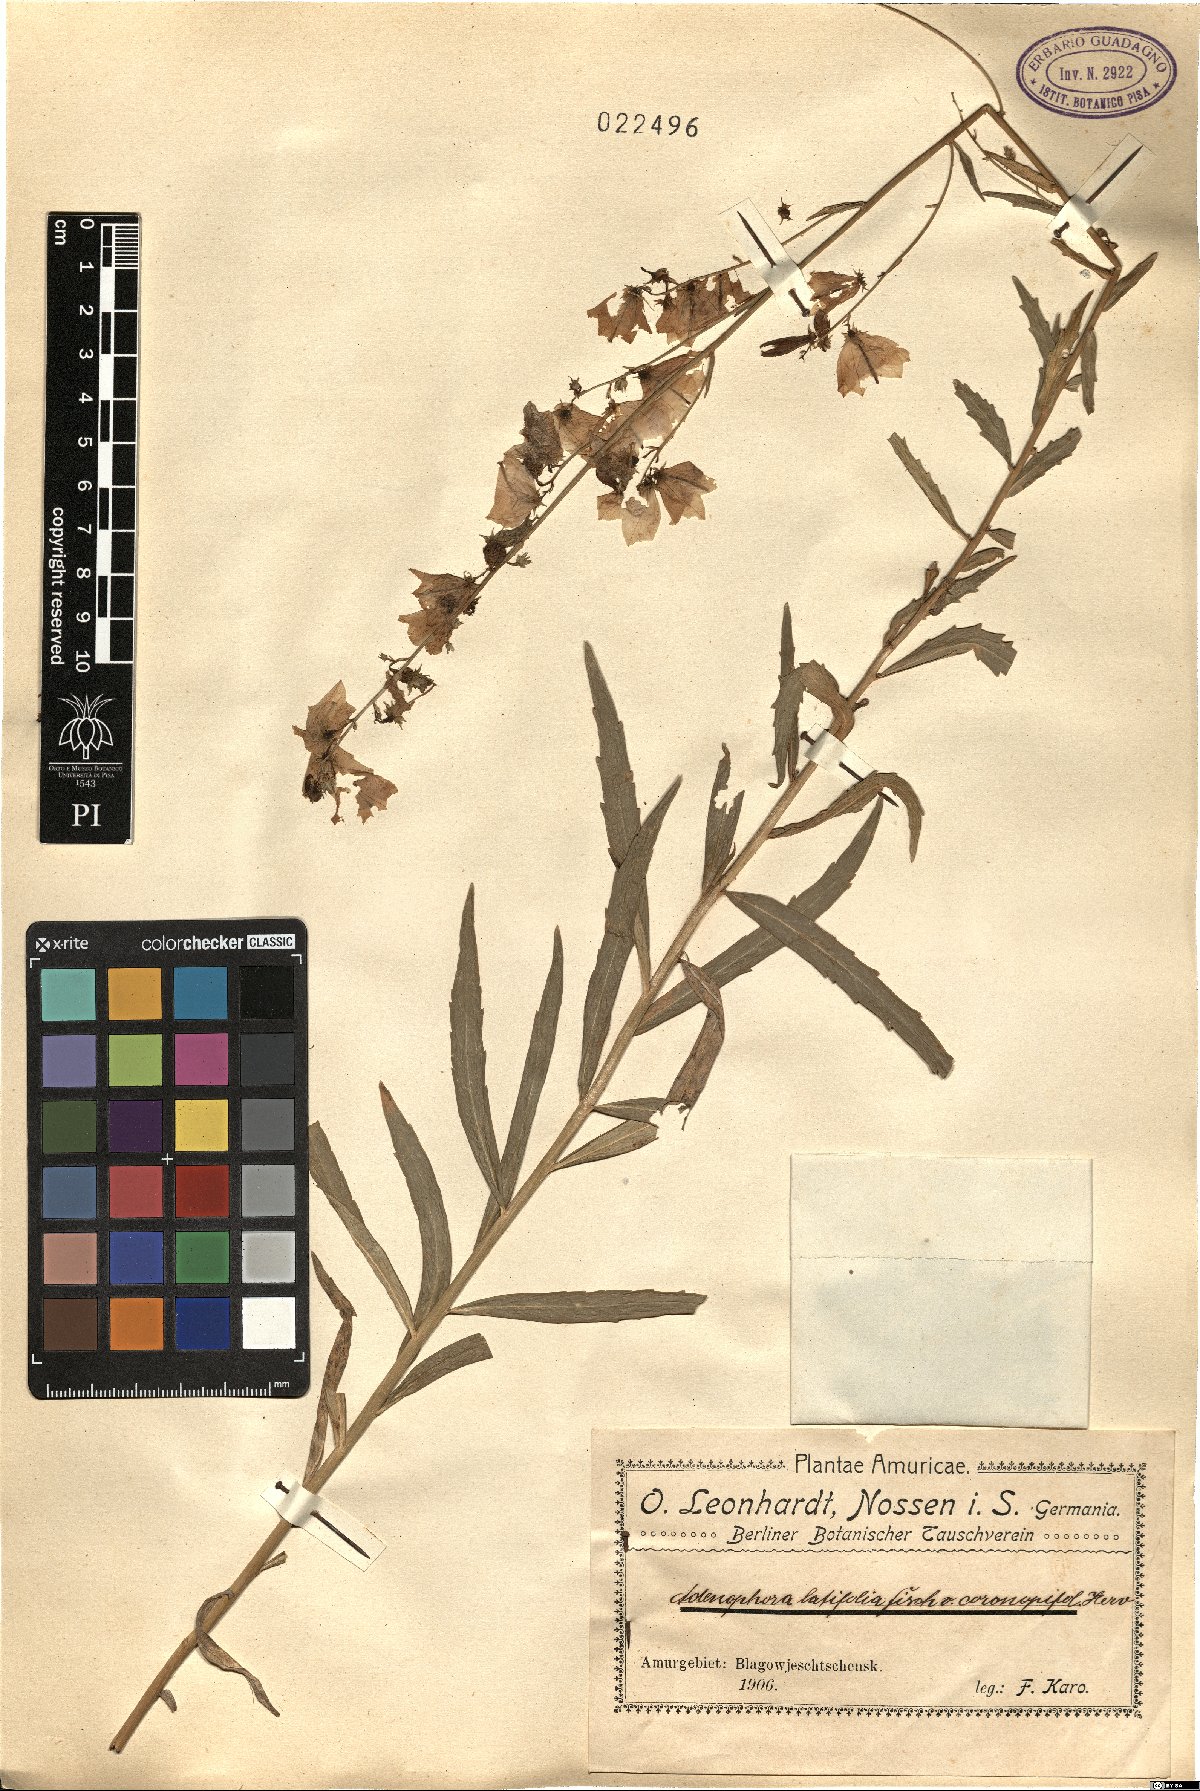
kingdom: Plantae
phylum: Tracheophyta
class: Magnoliopsida
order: Asterales
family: Campanulaceae
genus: Adenophora
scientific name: Adenophora pereskiifolia
